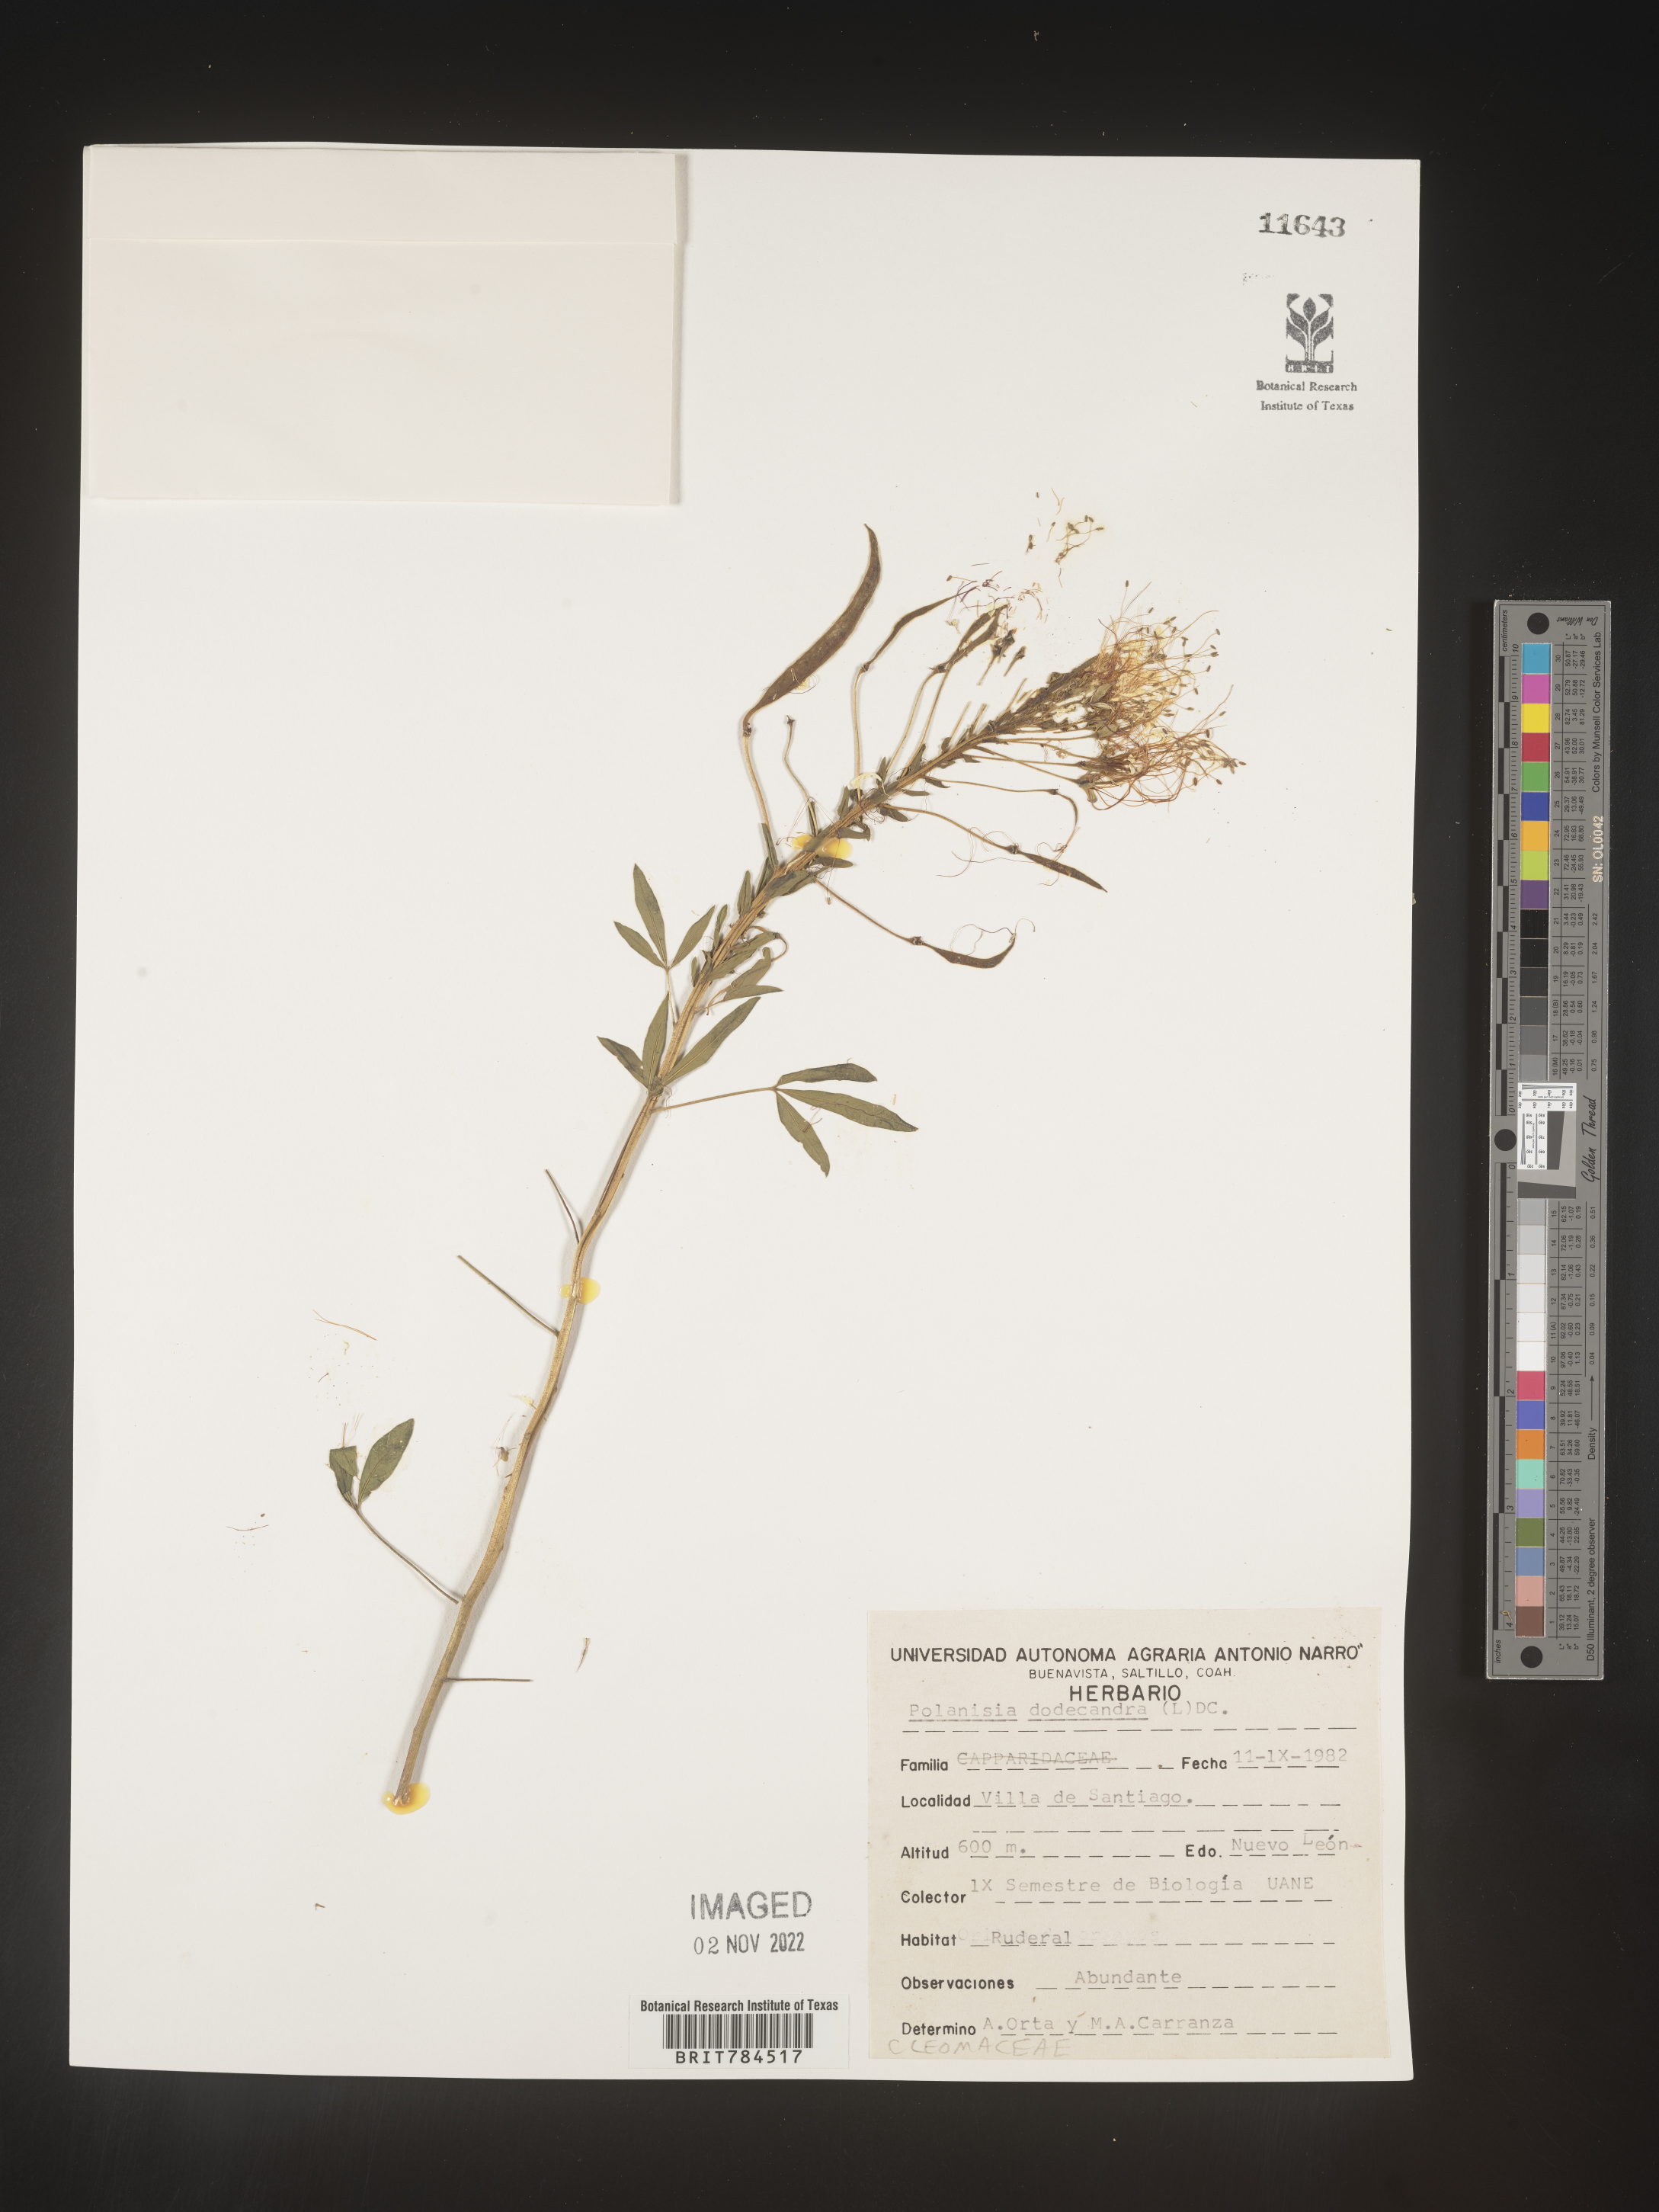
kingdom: Plantae
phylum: Tracheophyta
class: Magnoliopsida
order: Brassicales
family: Cleomaceae
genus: Polanisia
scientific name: Polanisia
